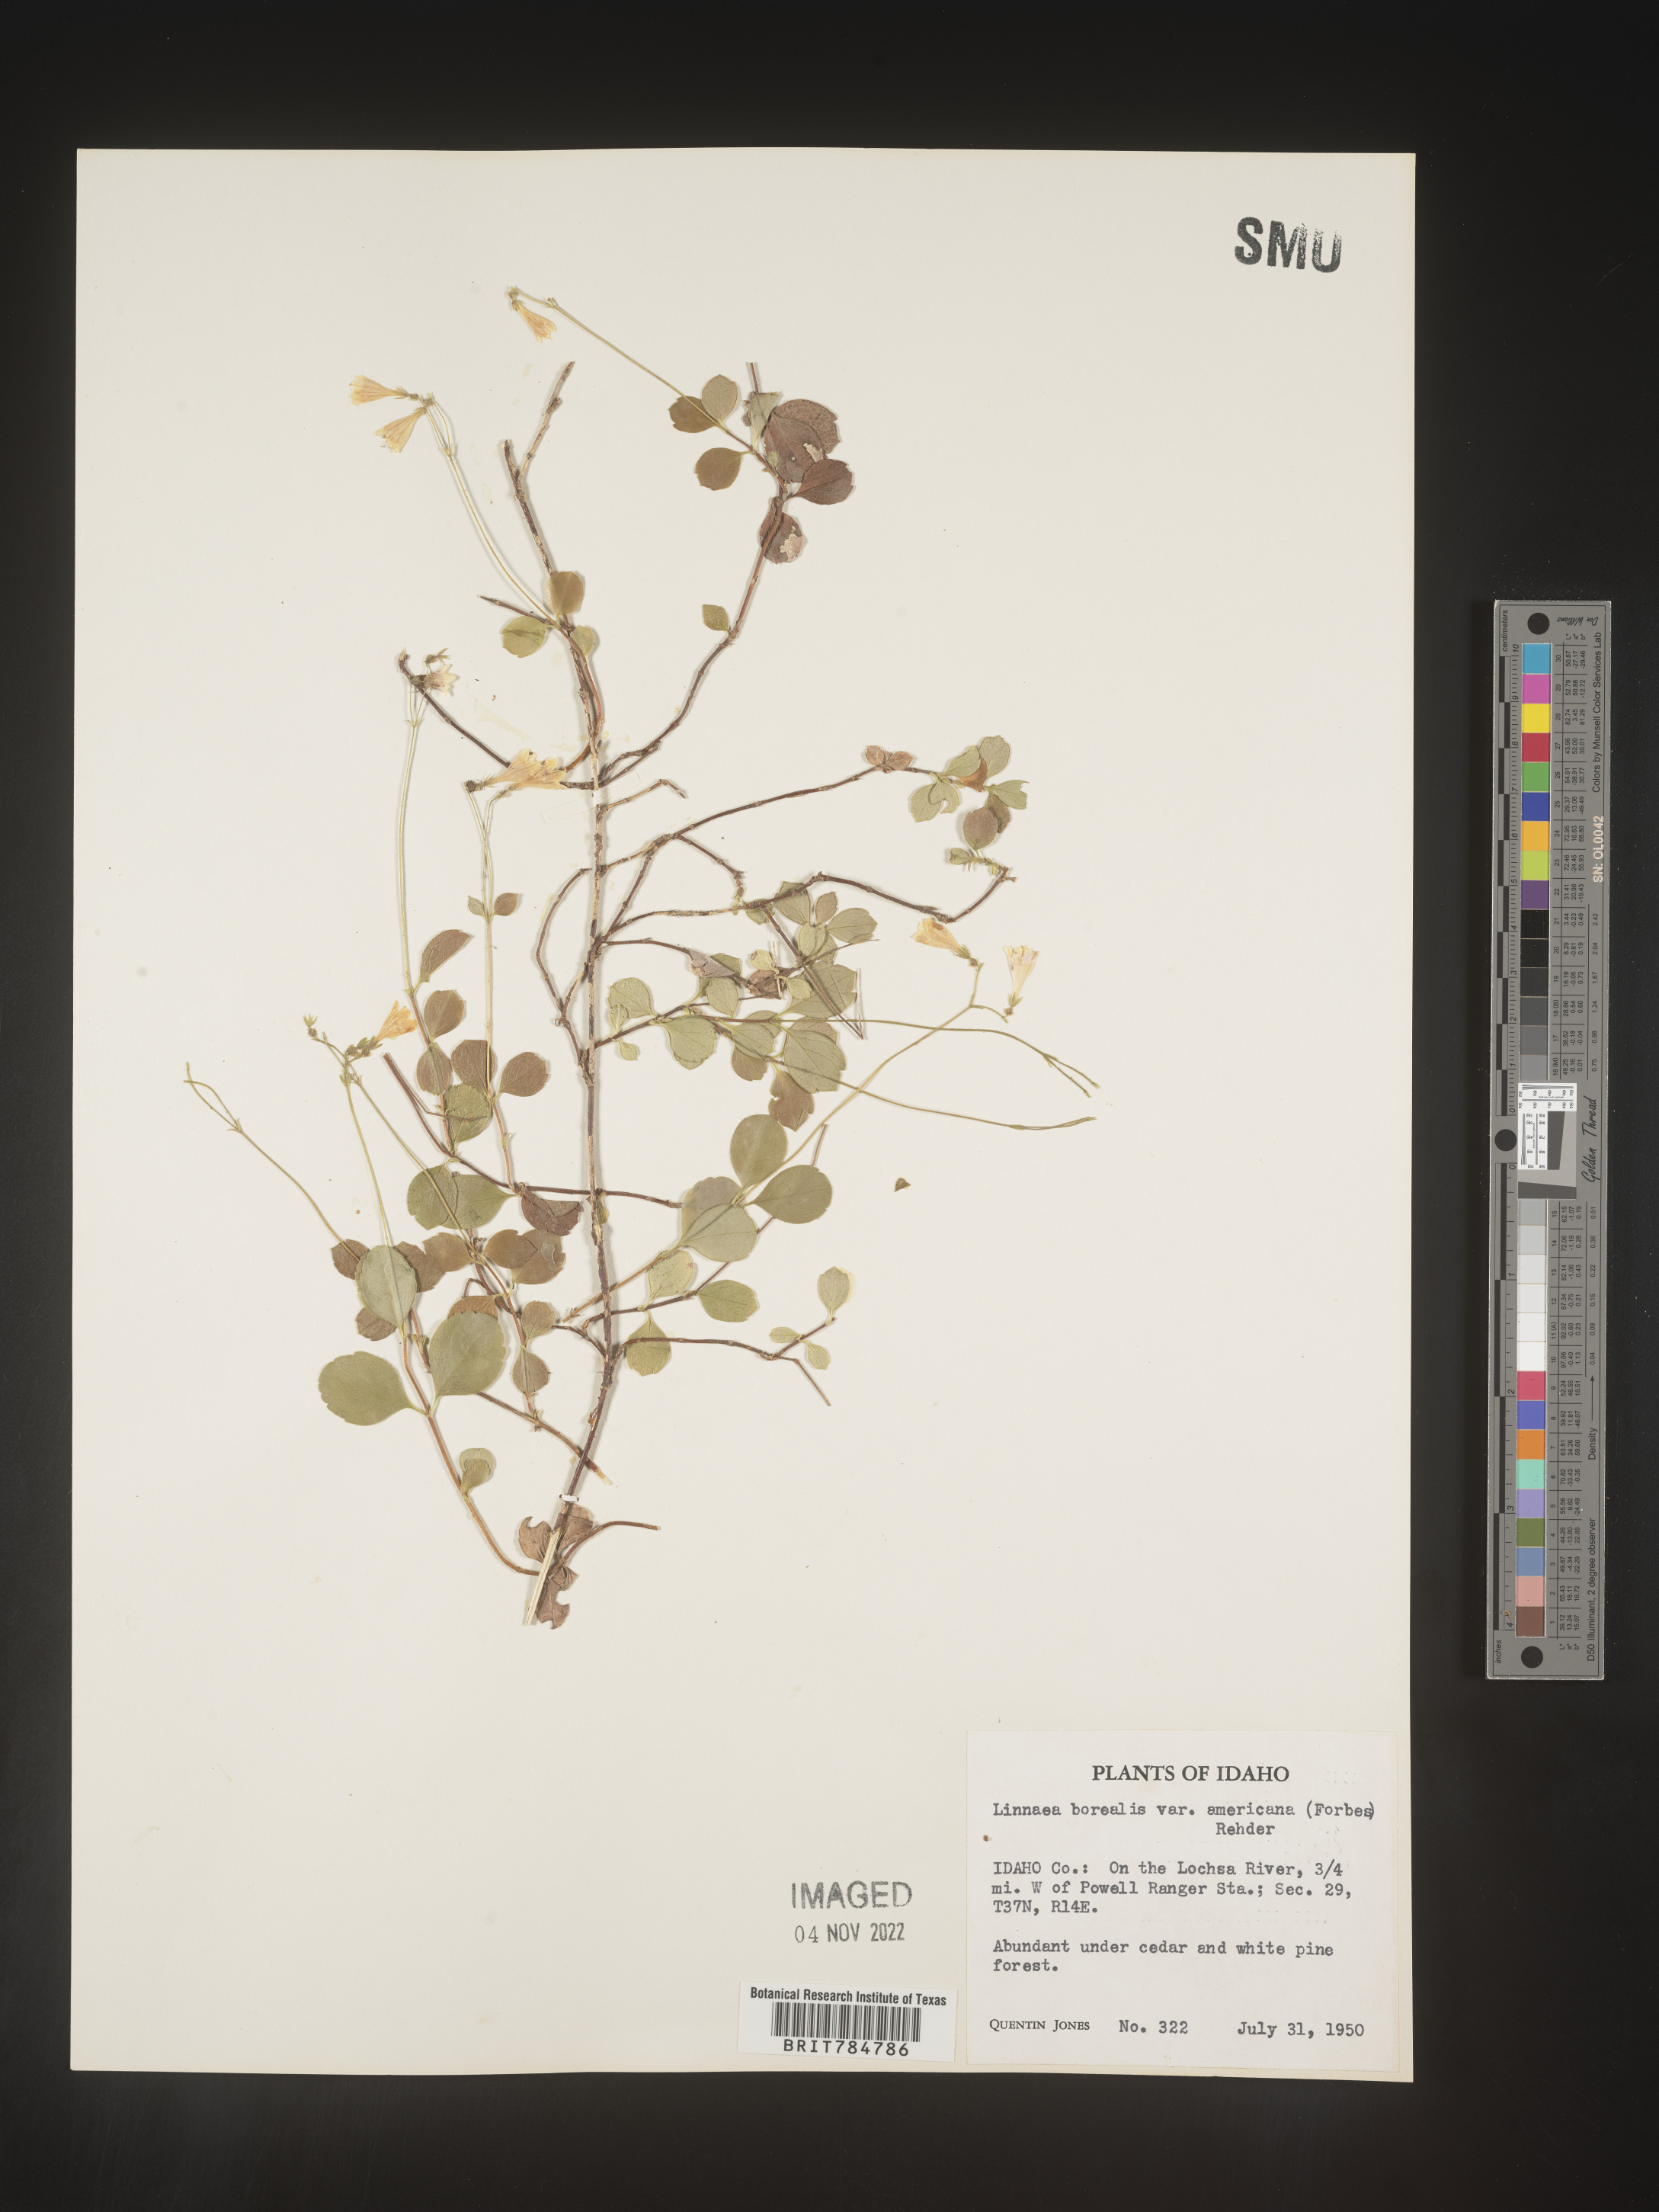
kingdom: Plantae
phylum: Tracheophyta
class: Magnoliopsida
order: Dipsacales
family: Caprifoliaceae
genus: Linnaea
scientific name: Linnaea borealis
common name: Twinflower
